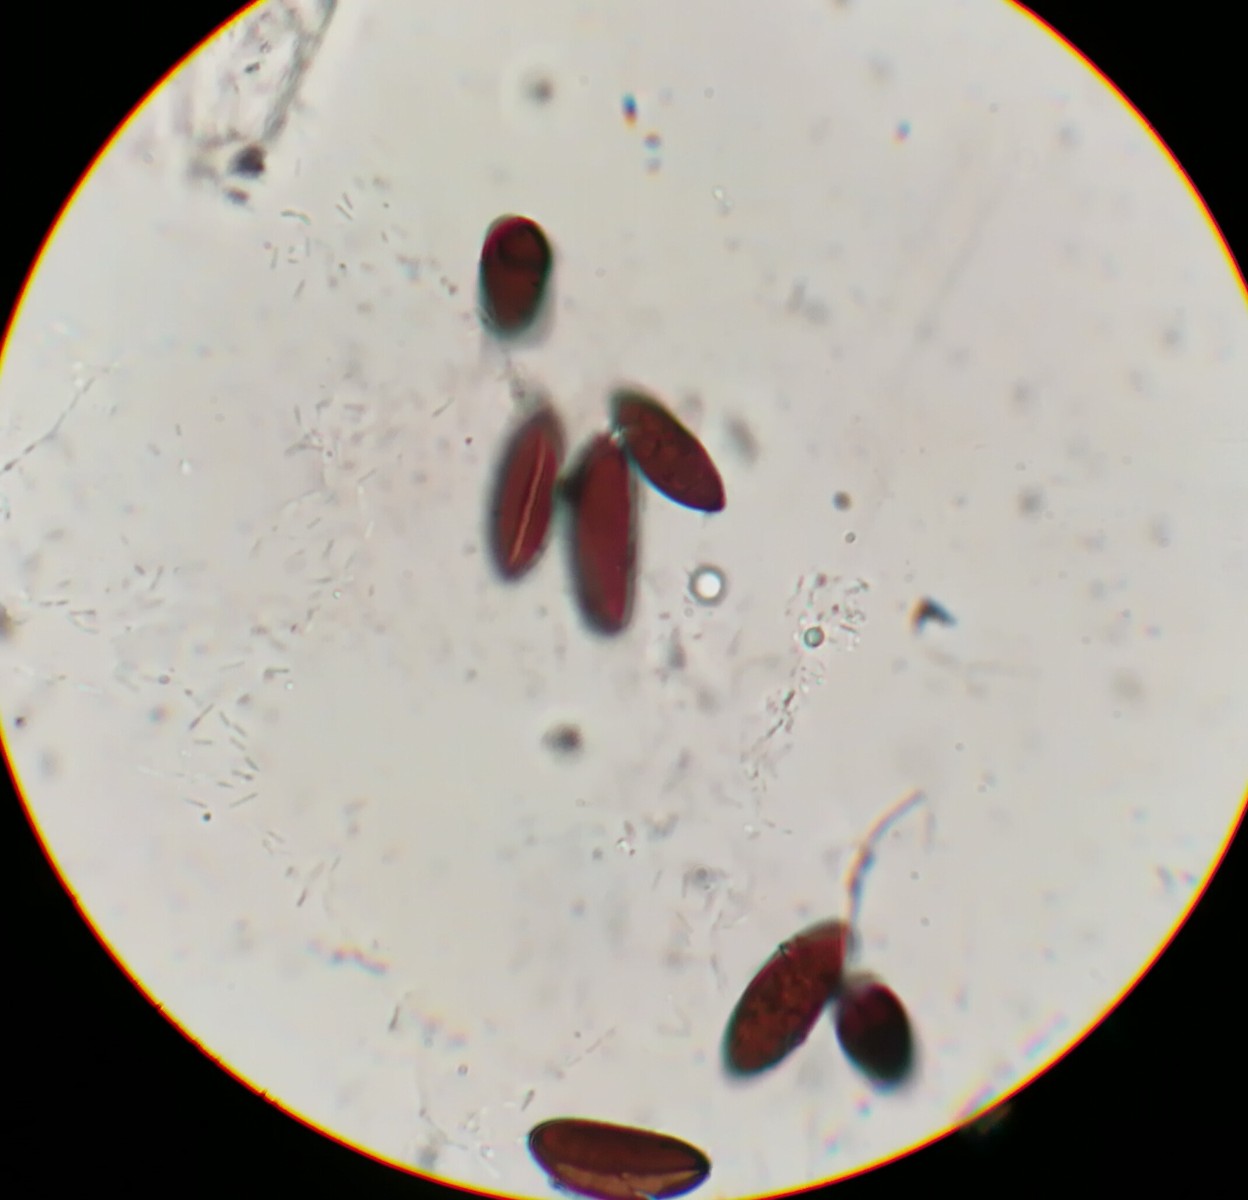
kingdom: Fungi
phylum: Ascomycota
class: Sordariomycetes
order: Xylariales
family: Xylariaceae
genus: Rosellinia
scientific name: Rosellinia corticium
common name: måtte-kulkaviar
